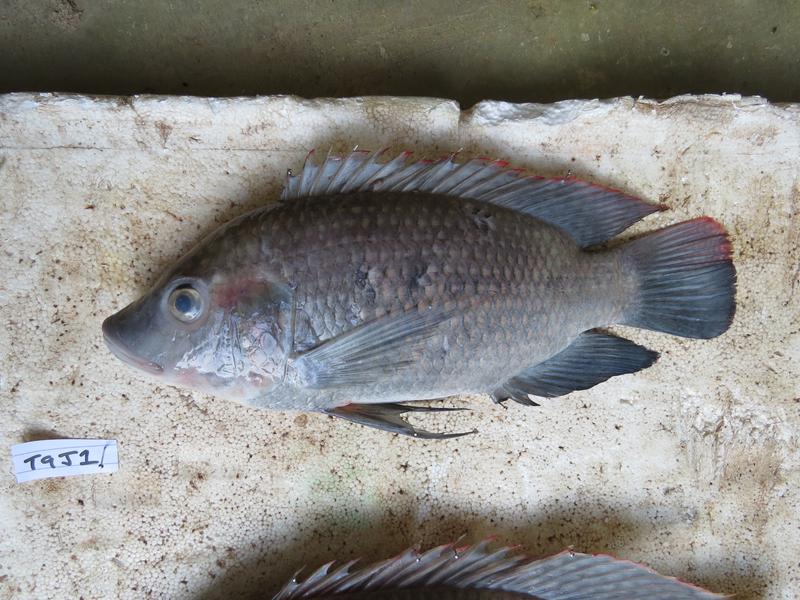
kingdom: Animalia
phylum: Chordata
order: Perciformes
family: Cichlidae
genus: Oreochromis
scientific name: Oreochromis urolepis
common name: Wami tilapia
